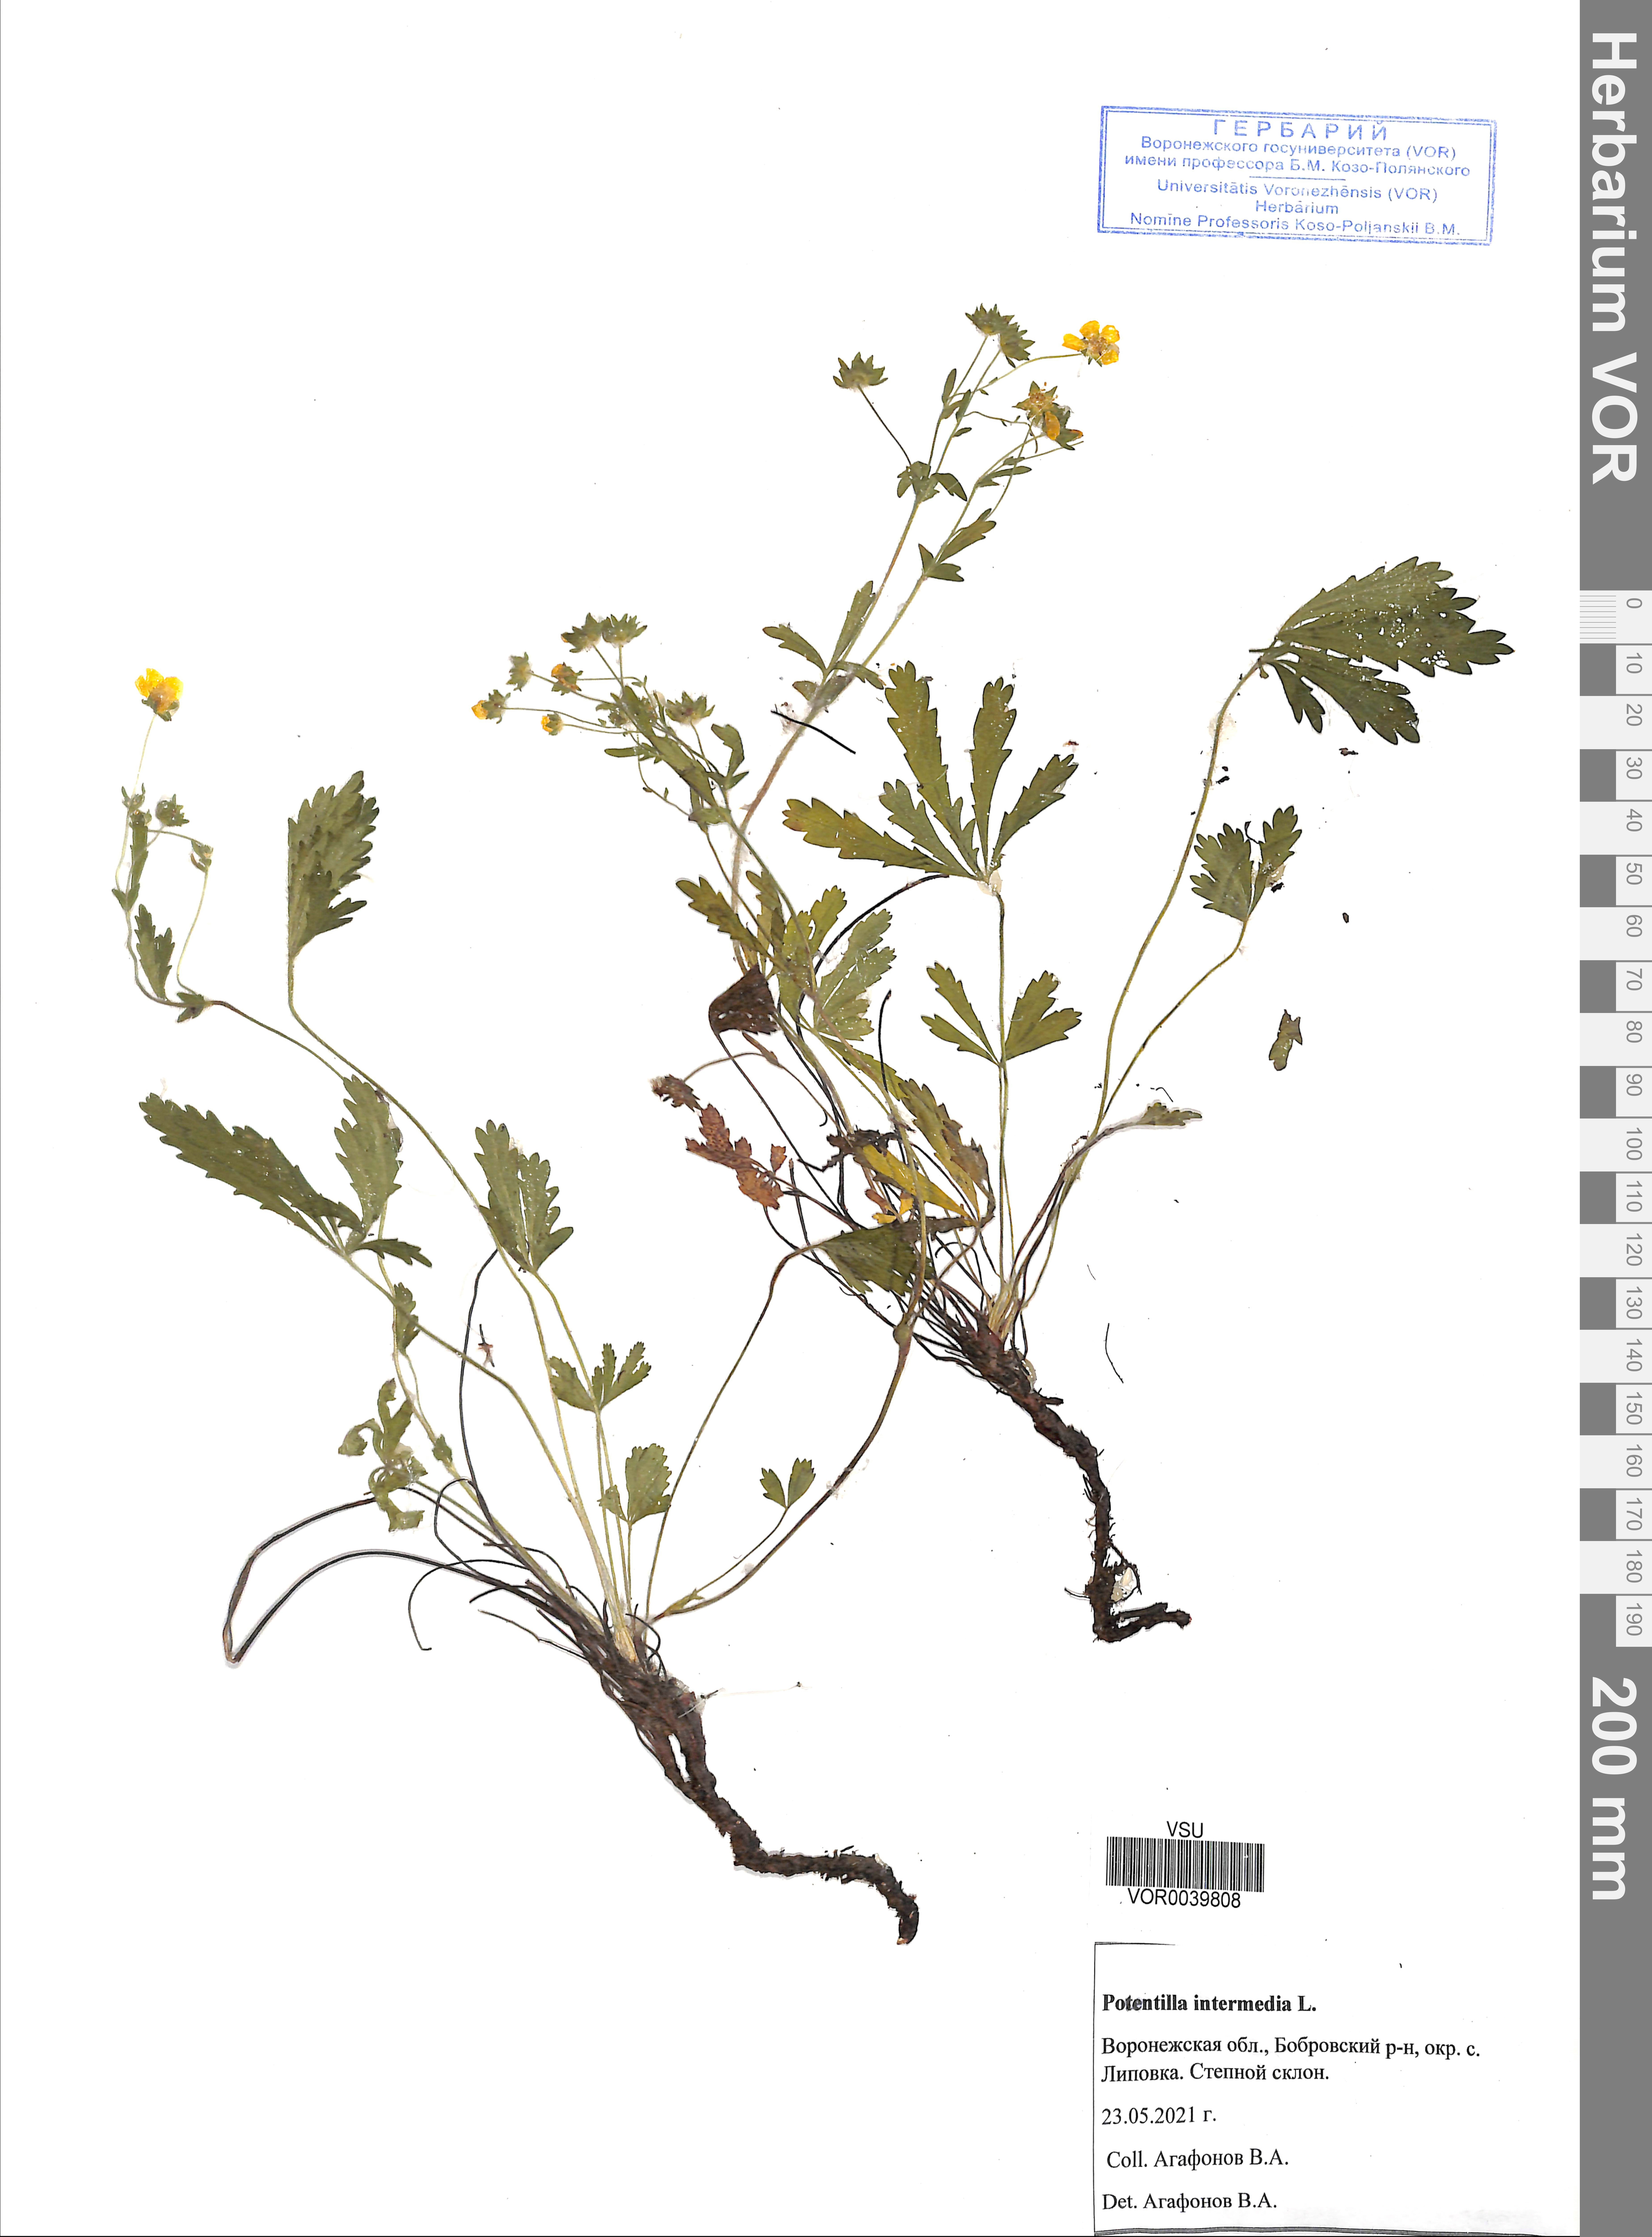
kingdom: Plantae
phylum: Tracheophyta
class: Magnoliopsida
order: Rosales
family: Rosaceae
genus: Potentilla
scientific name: Potentilla intermedia
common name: Downy cinquefoil
